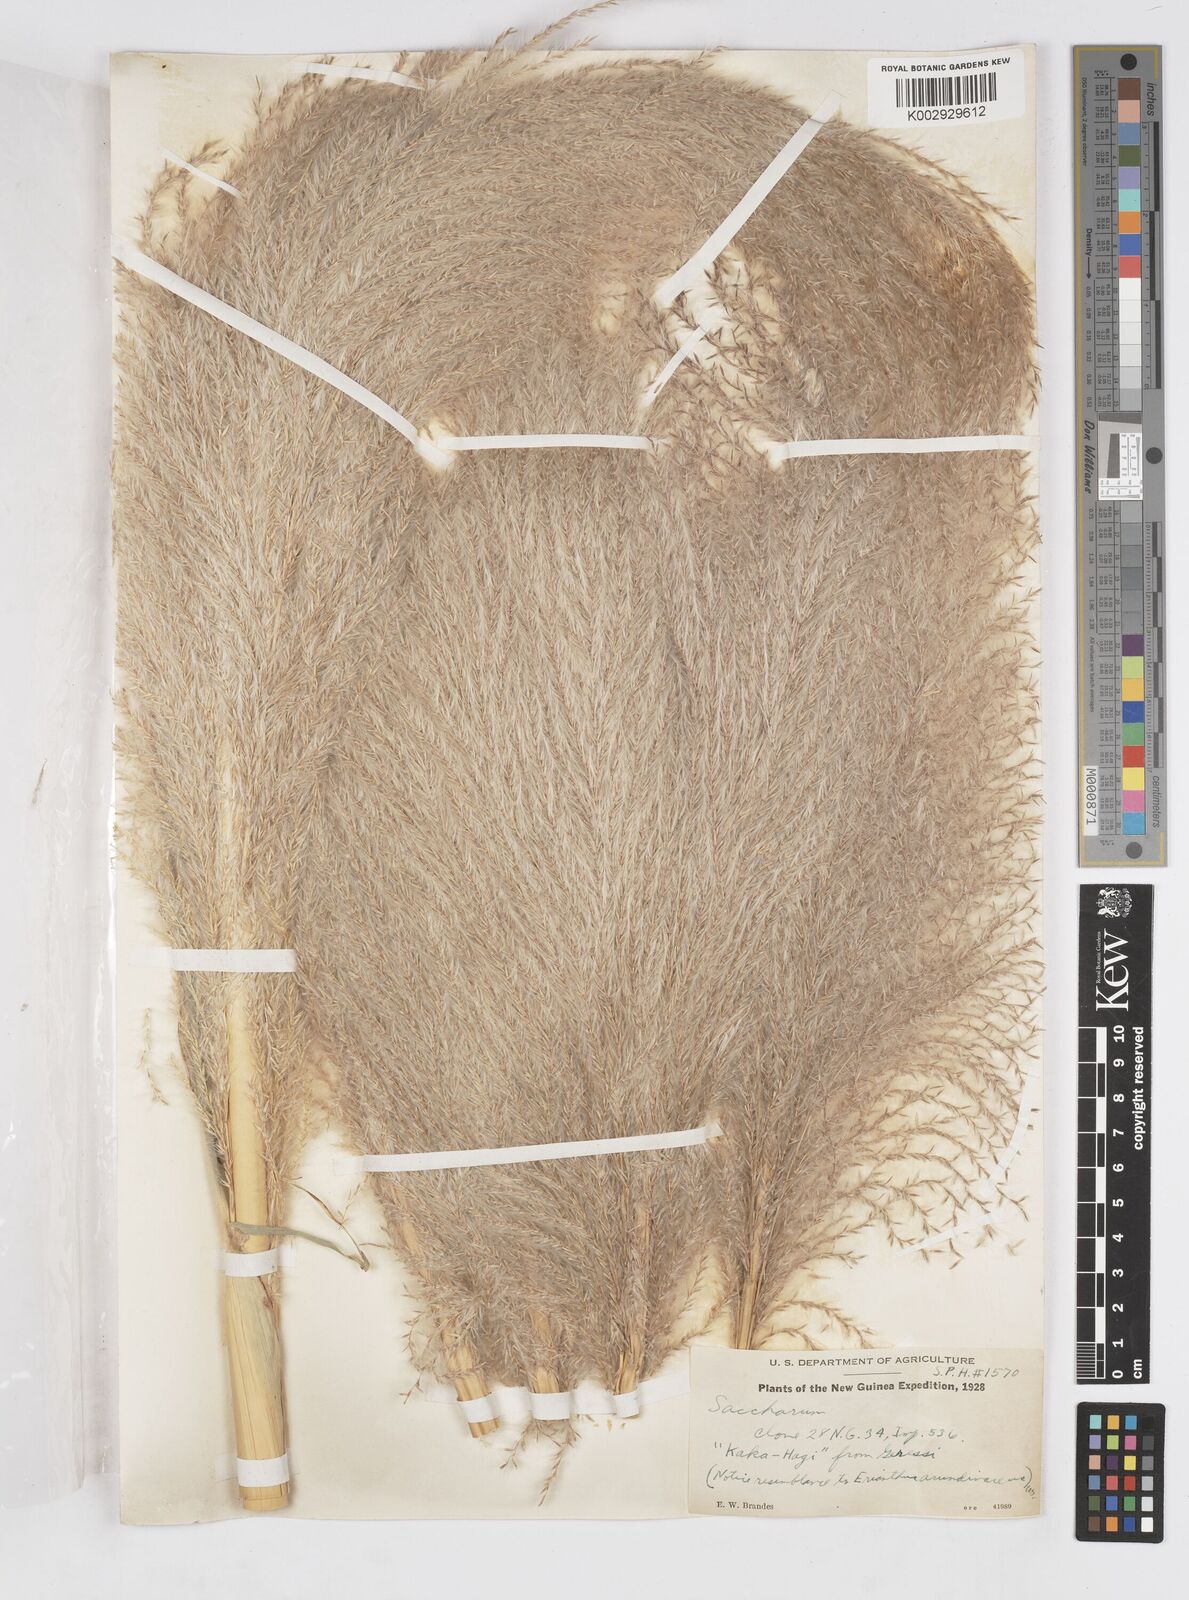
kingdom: Plantae
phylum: Tracheophyta
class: Liliopsida
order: Poales
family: Poaceae
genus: Saccharum
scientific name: Saccharum officinarum
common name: Sugarcane
